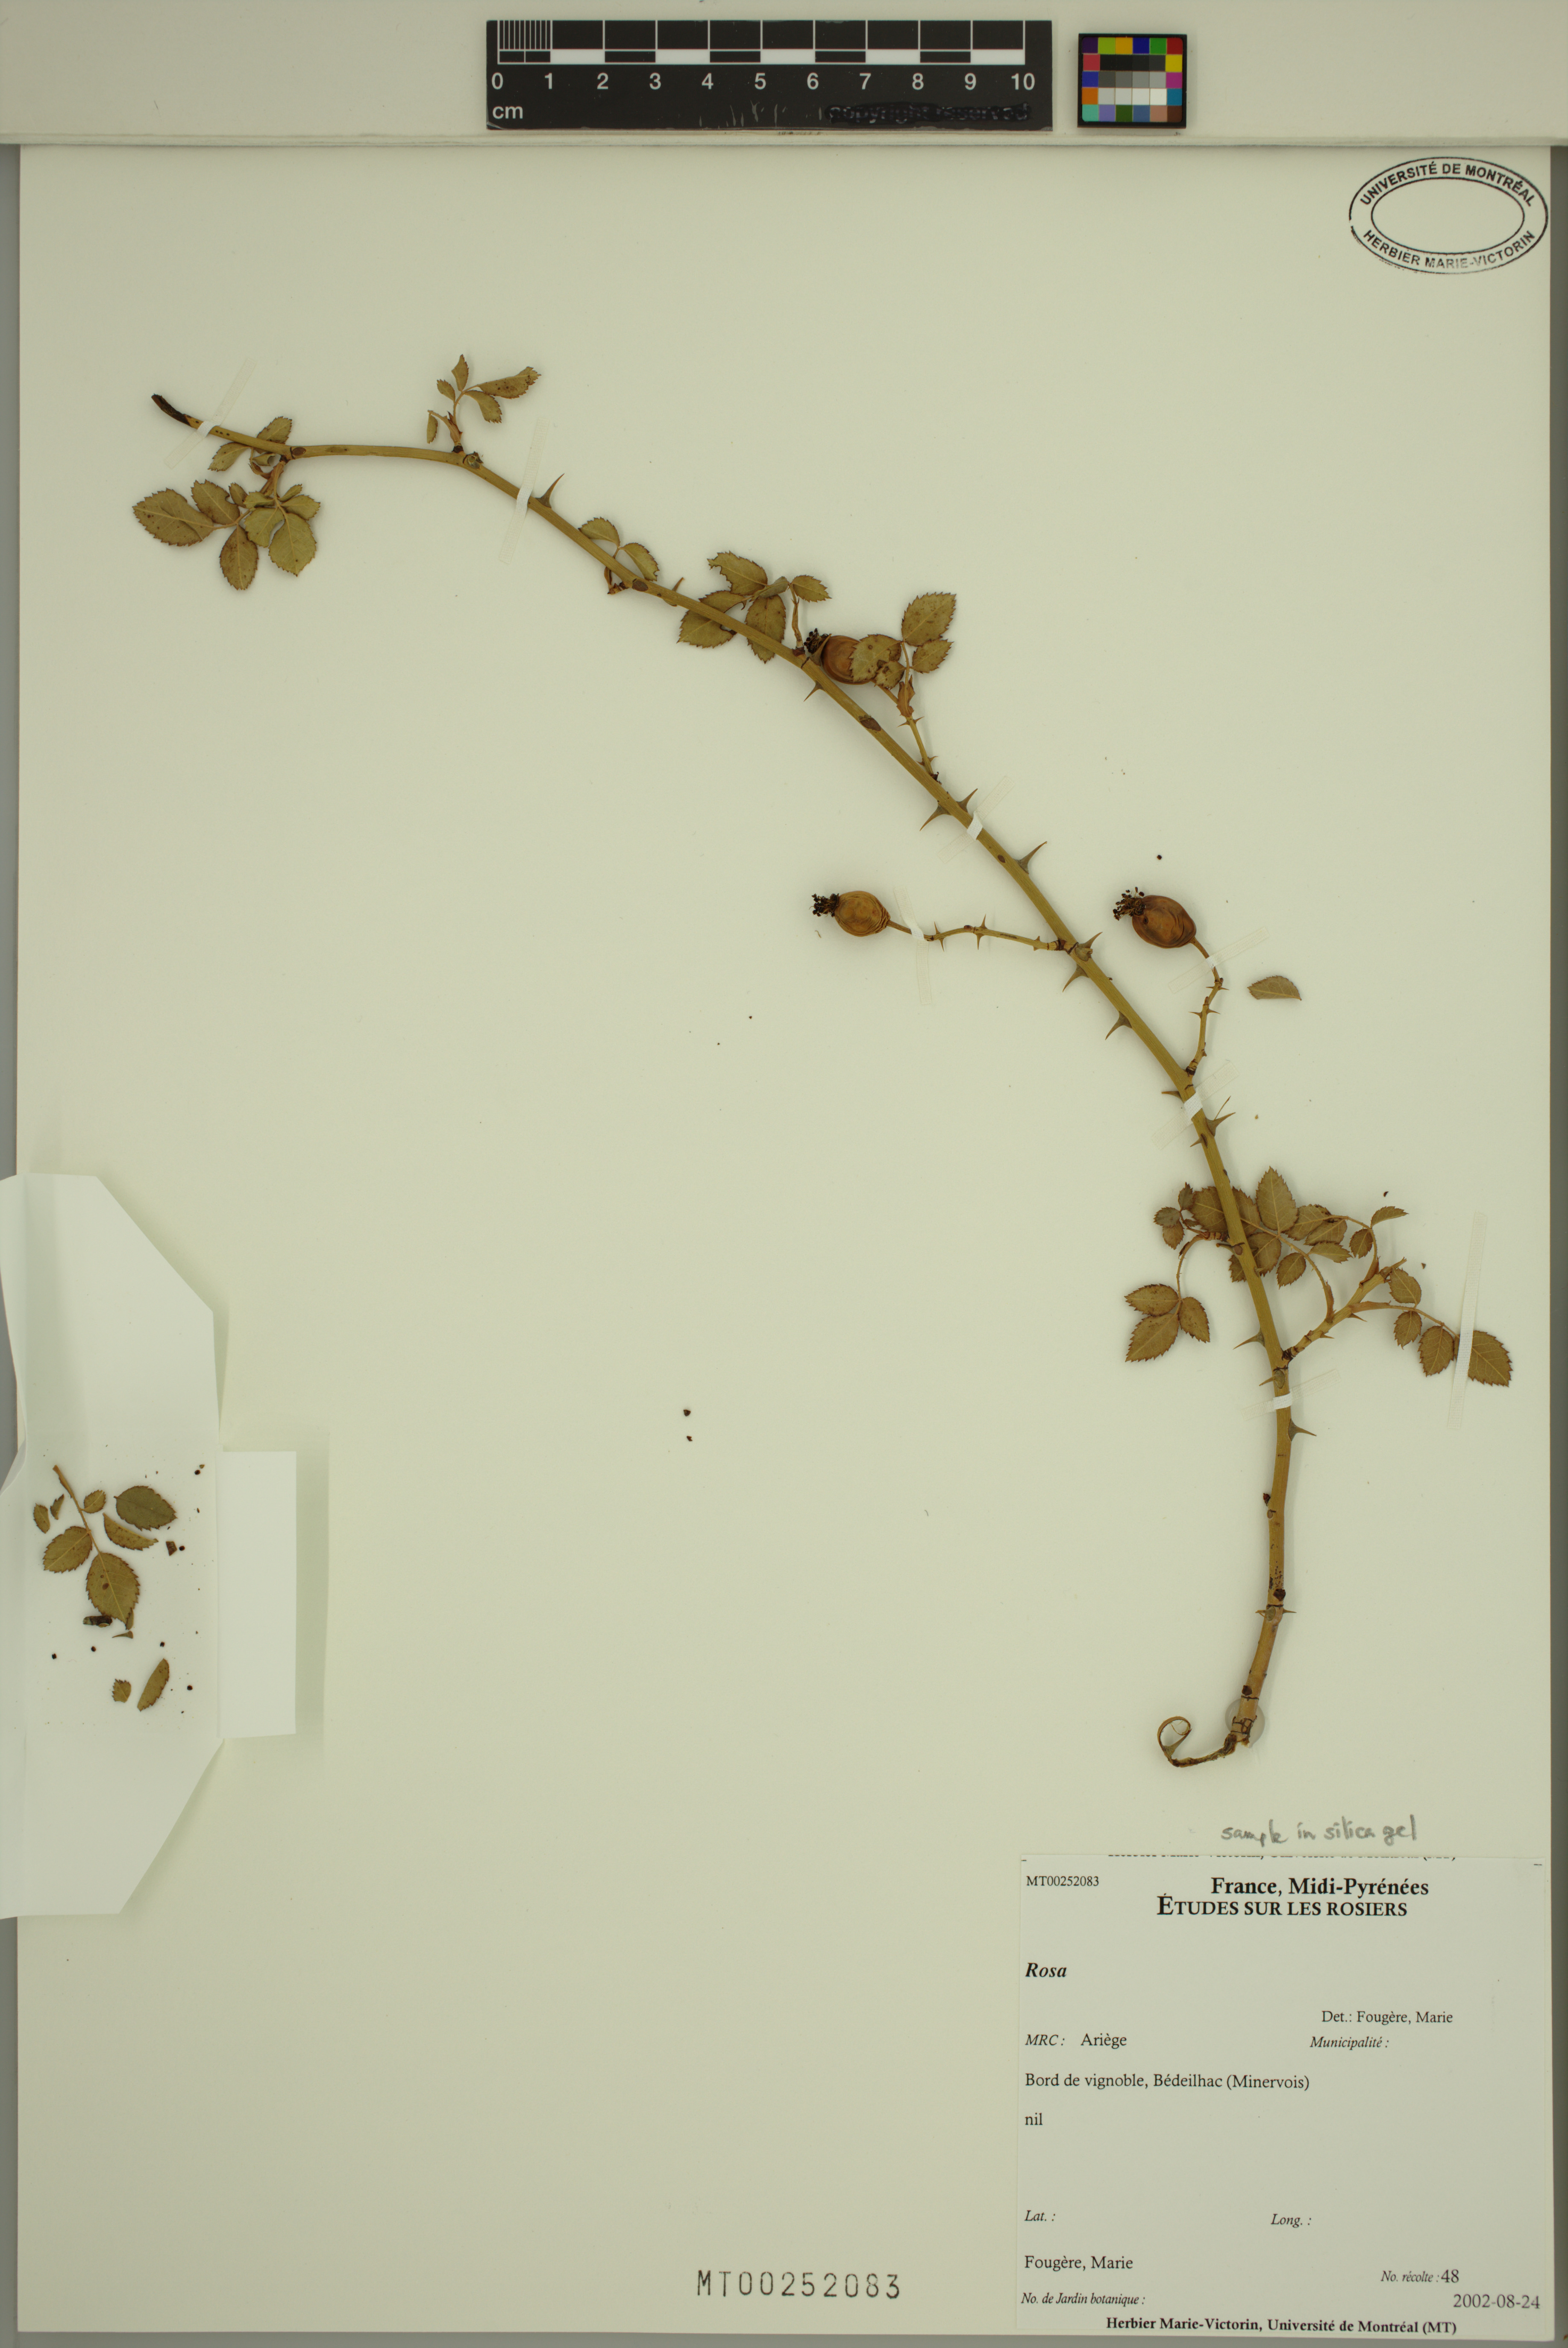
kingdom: Plantae
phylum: Tracheophyta
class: Magnoliopsida
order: Rosales
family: Rosaceae
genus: Rosa
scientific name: Rosa
